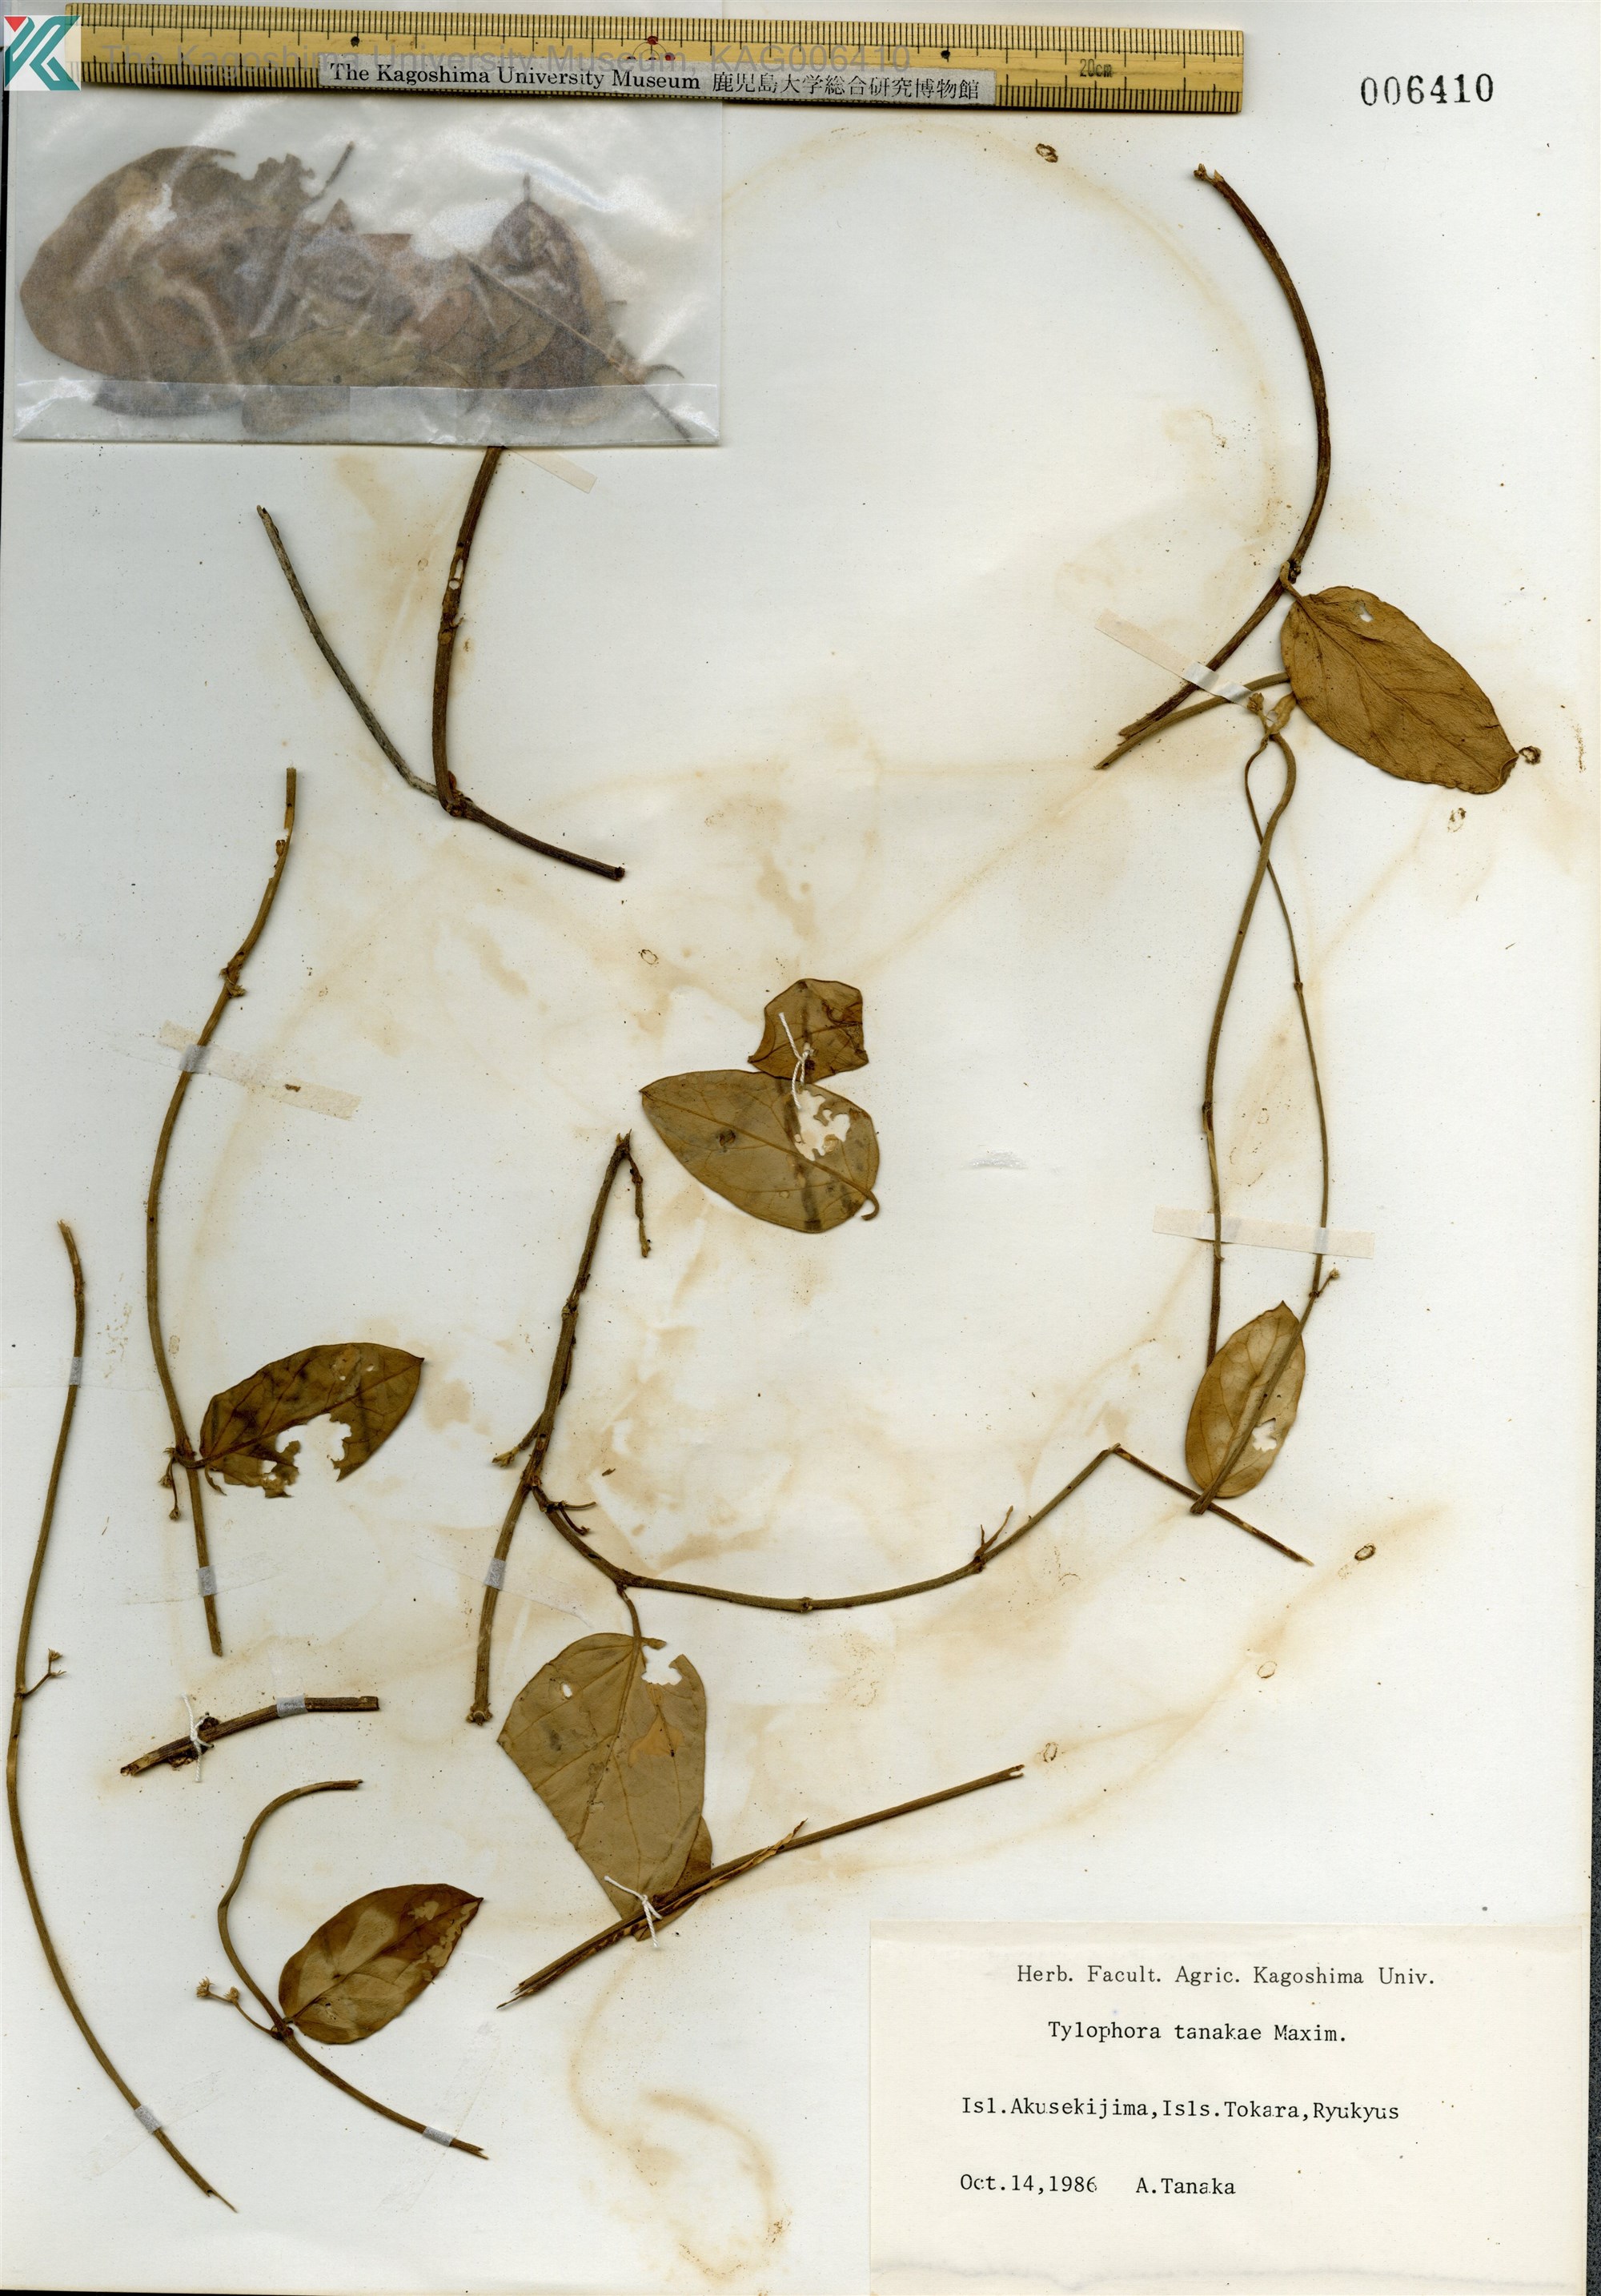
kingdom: Plantae
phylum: Tracheophyta
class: Magnoliopsida
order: Gentianales
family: Apocynaceae
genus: Vincetoxicum
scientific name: Vincetoxicum Tylophora tanakae
